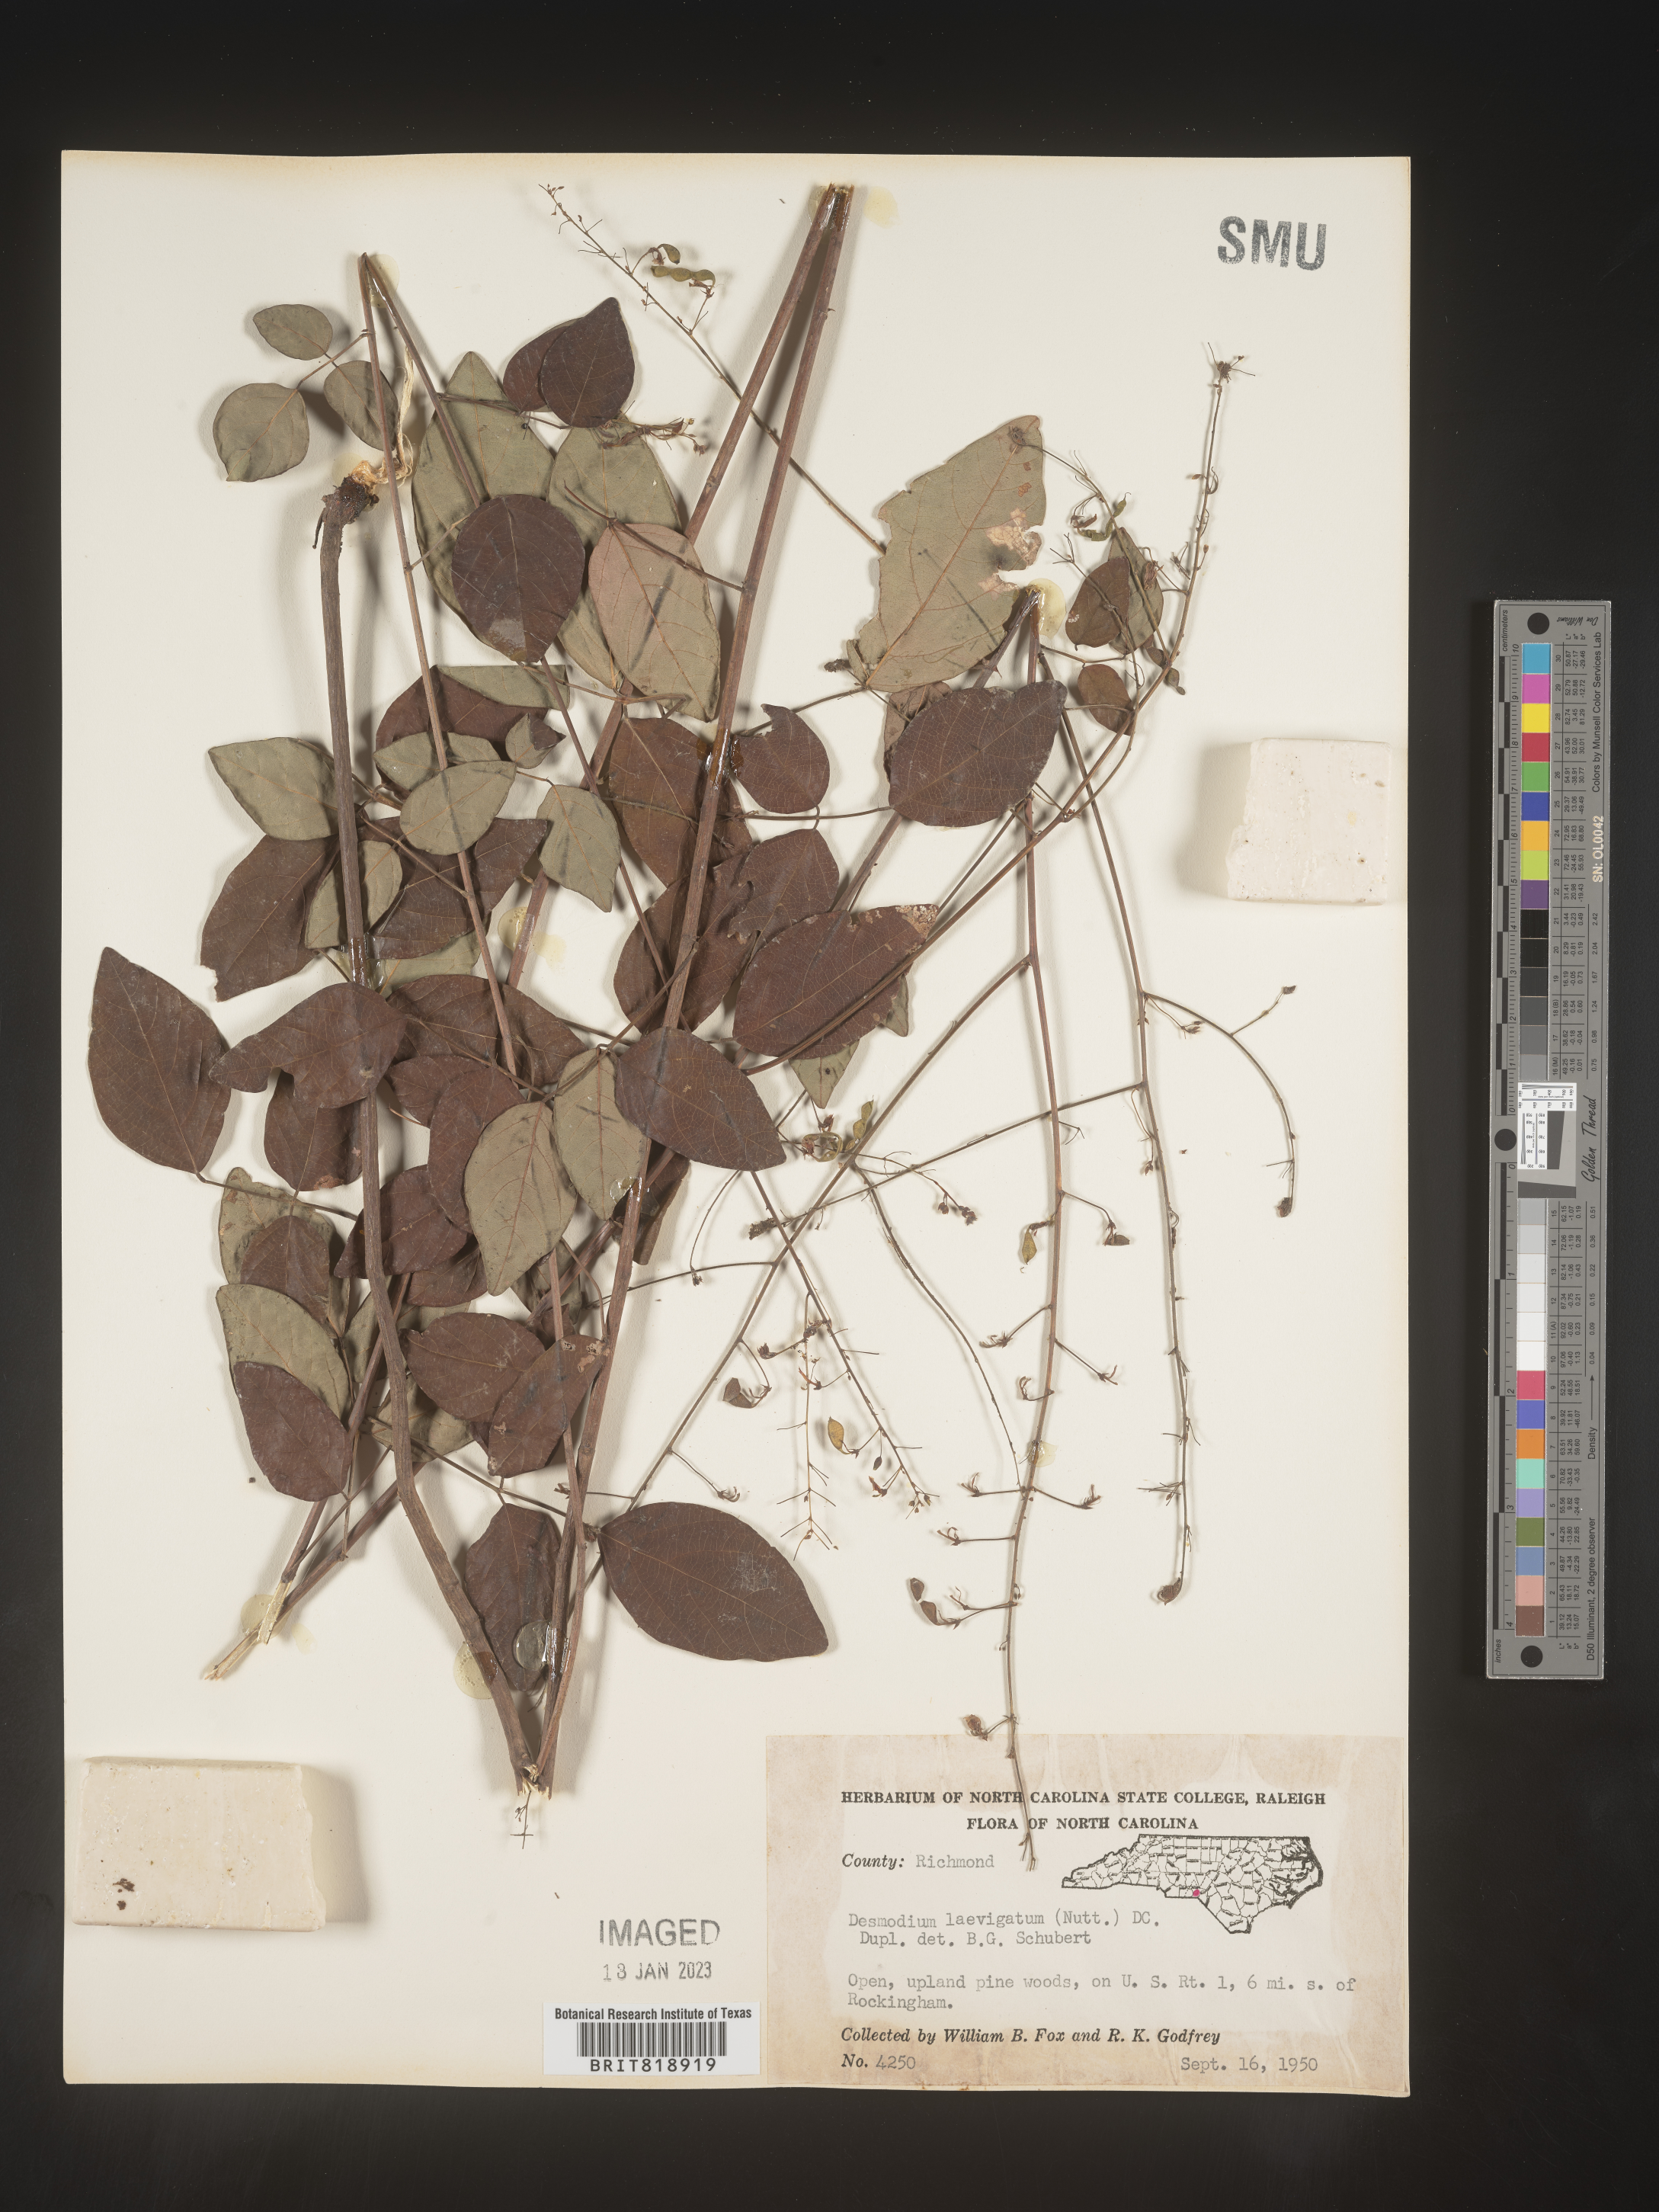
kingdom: Plantae
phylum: Tracheophyta
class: Magnoliopsida
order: Fabales
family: Fabaceae
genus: Desmodium
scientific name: Desmodium laevigatum
